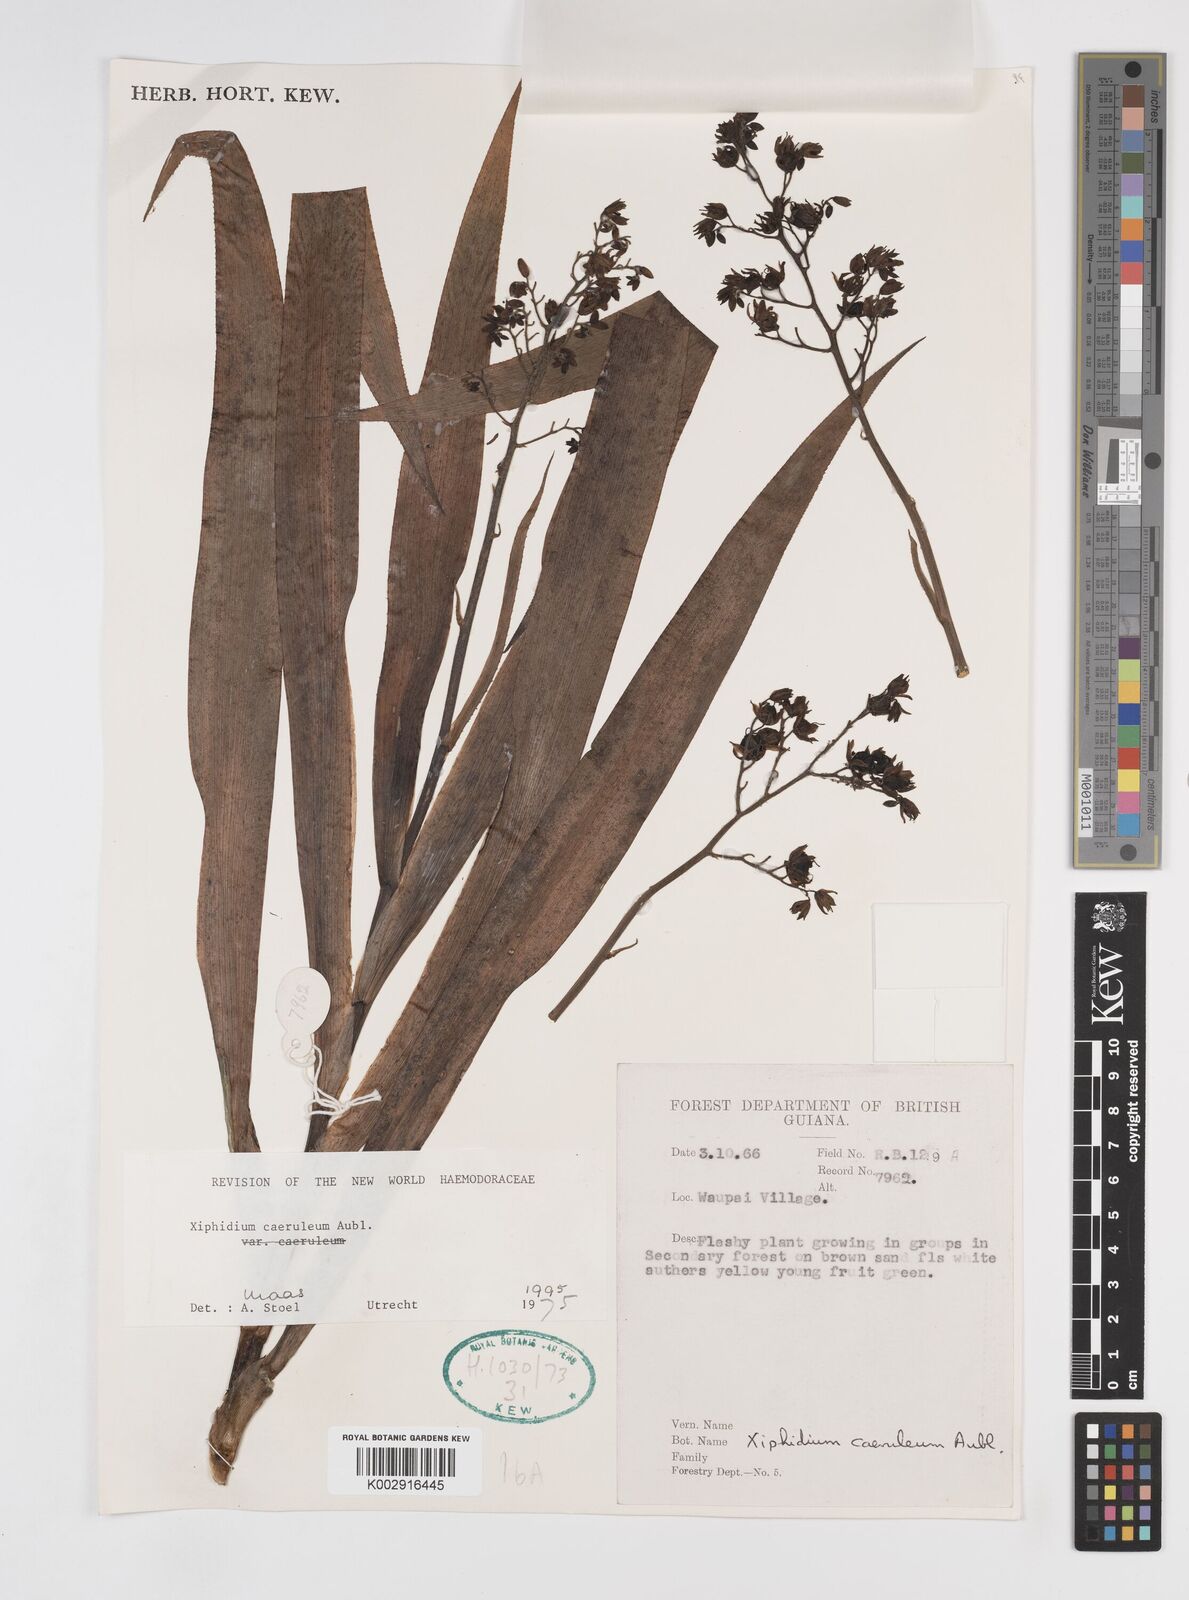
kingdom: Plantae
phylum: Tracheophyta
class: Liliopsida
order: Commelinales
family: Haemodoraceae
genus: Xiphidium
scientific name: Xiphidium caeruleum
